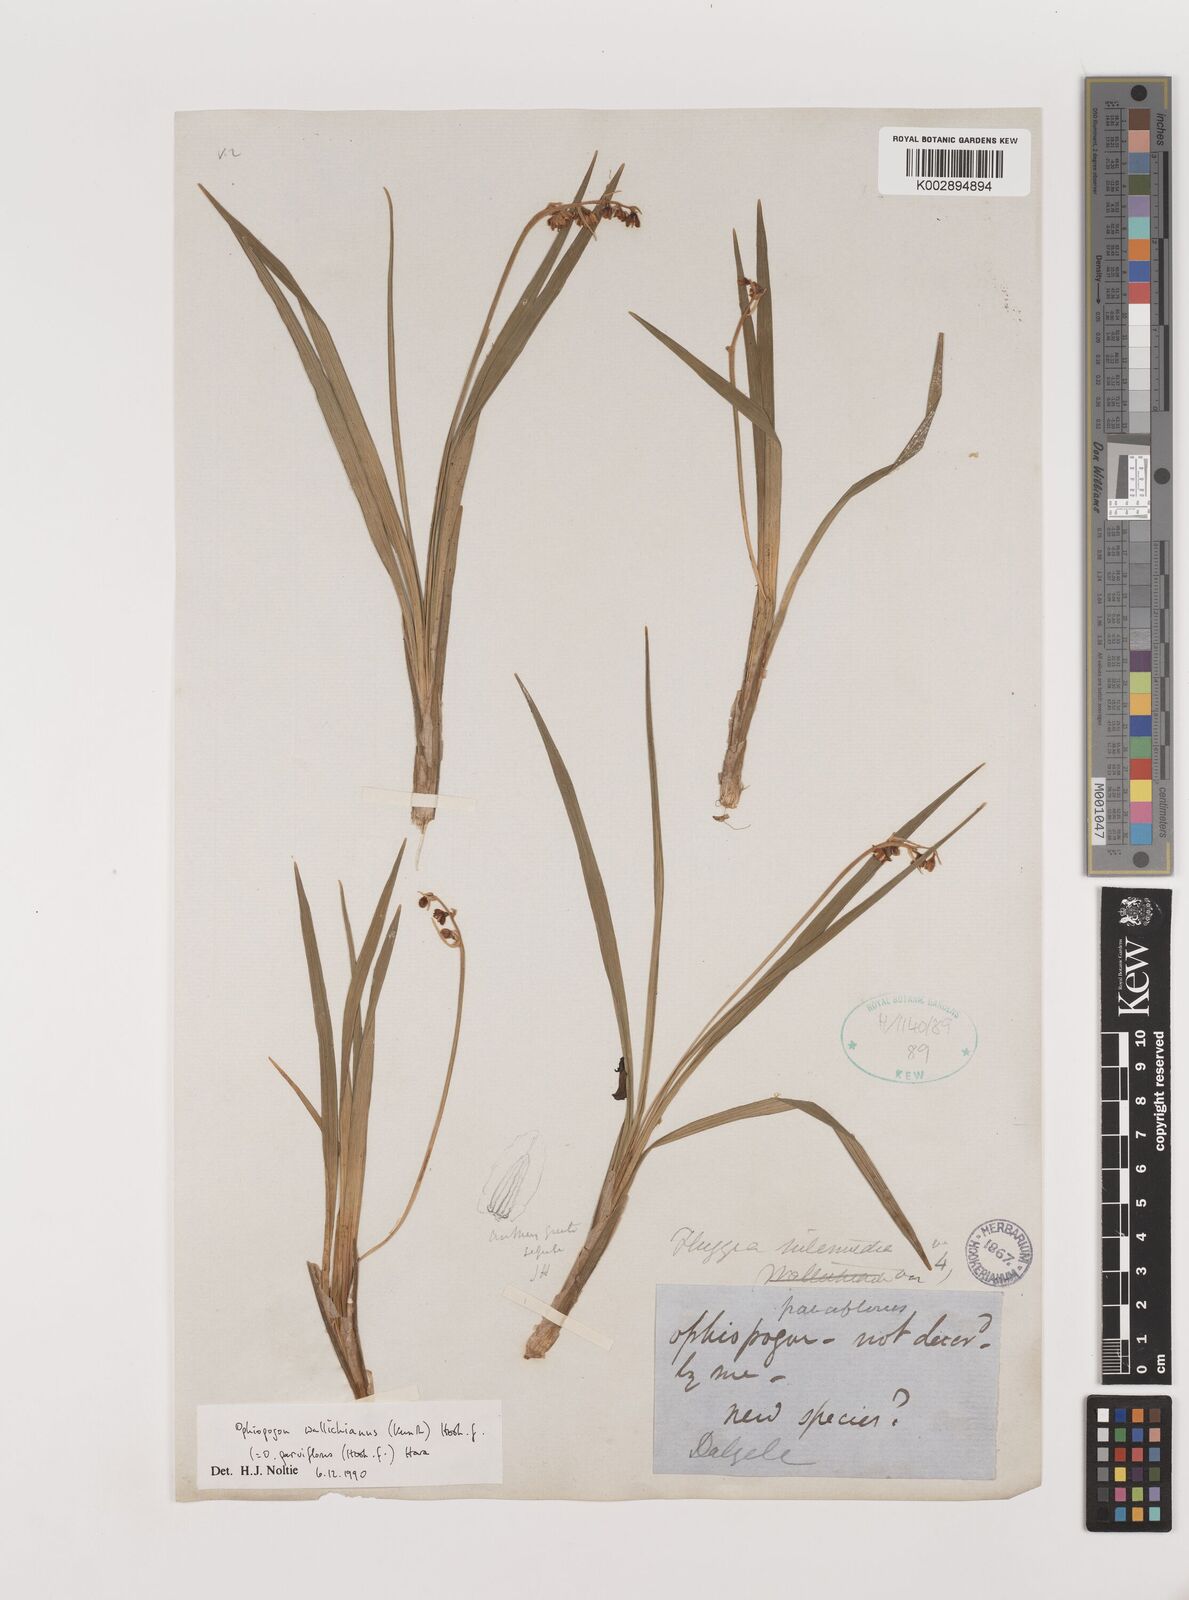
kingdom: Plantae
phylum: Tracheophyta
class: Liliopsida
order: Asparagales
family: Asparagaceae
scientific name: Asparagaceae
